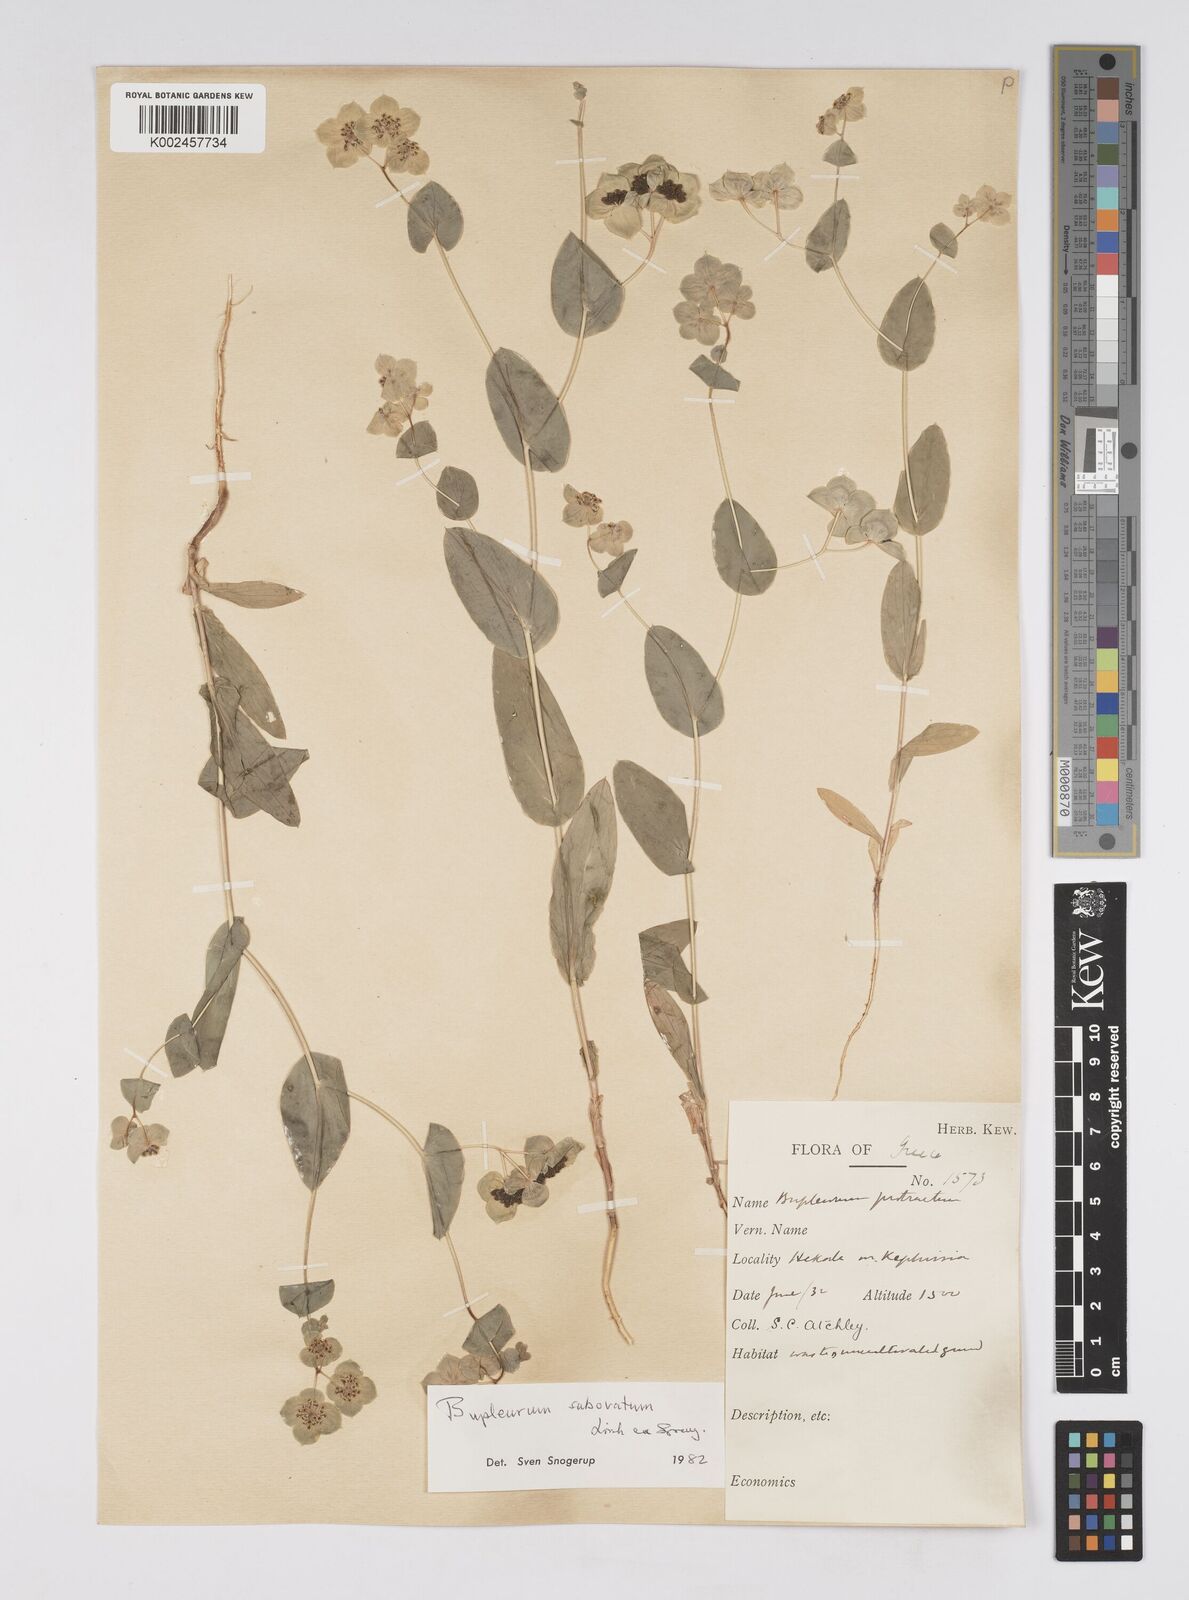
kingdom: Plantae
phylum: Tracheophyta
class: Magnoliopsida
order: Apiales
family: Apiaceae
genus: Bupleurum
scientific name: Bupleurum subovatum
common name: False thorow-wax
